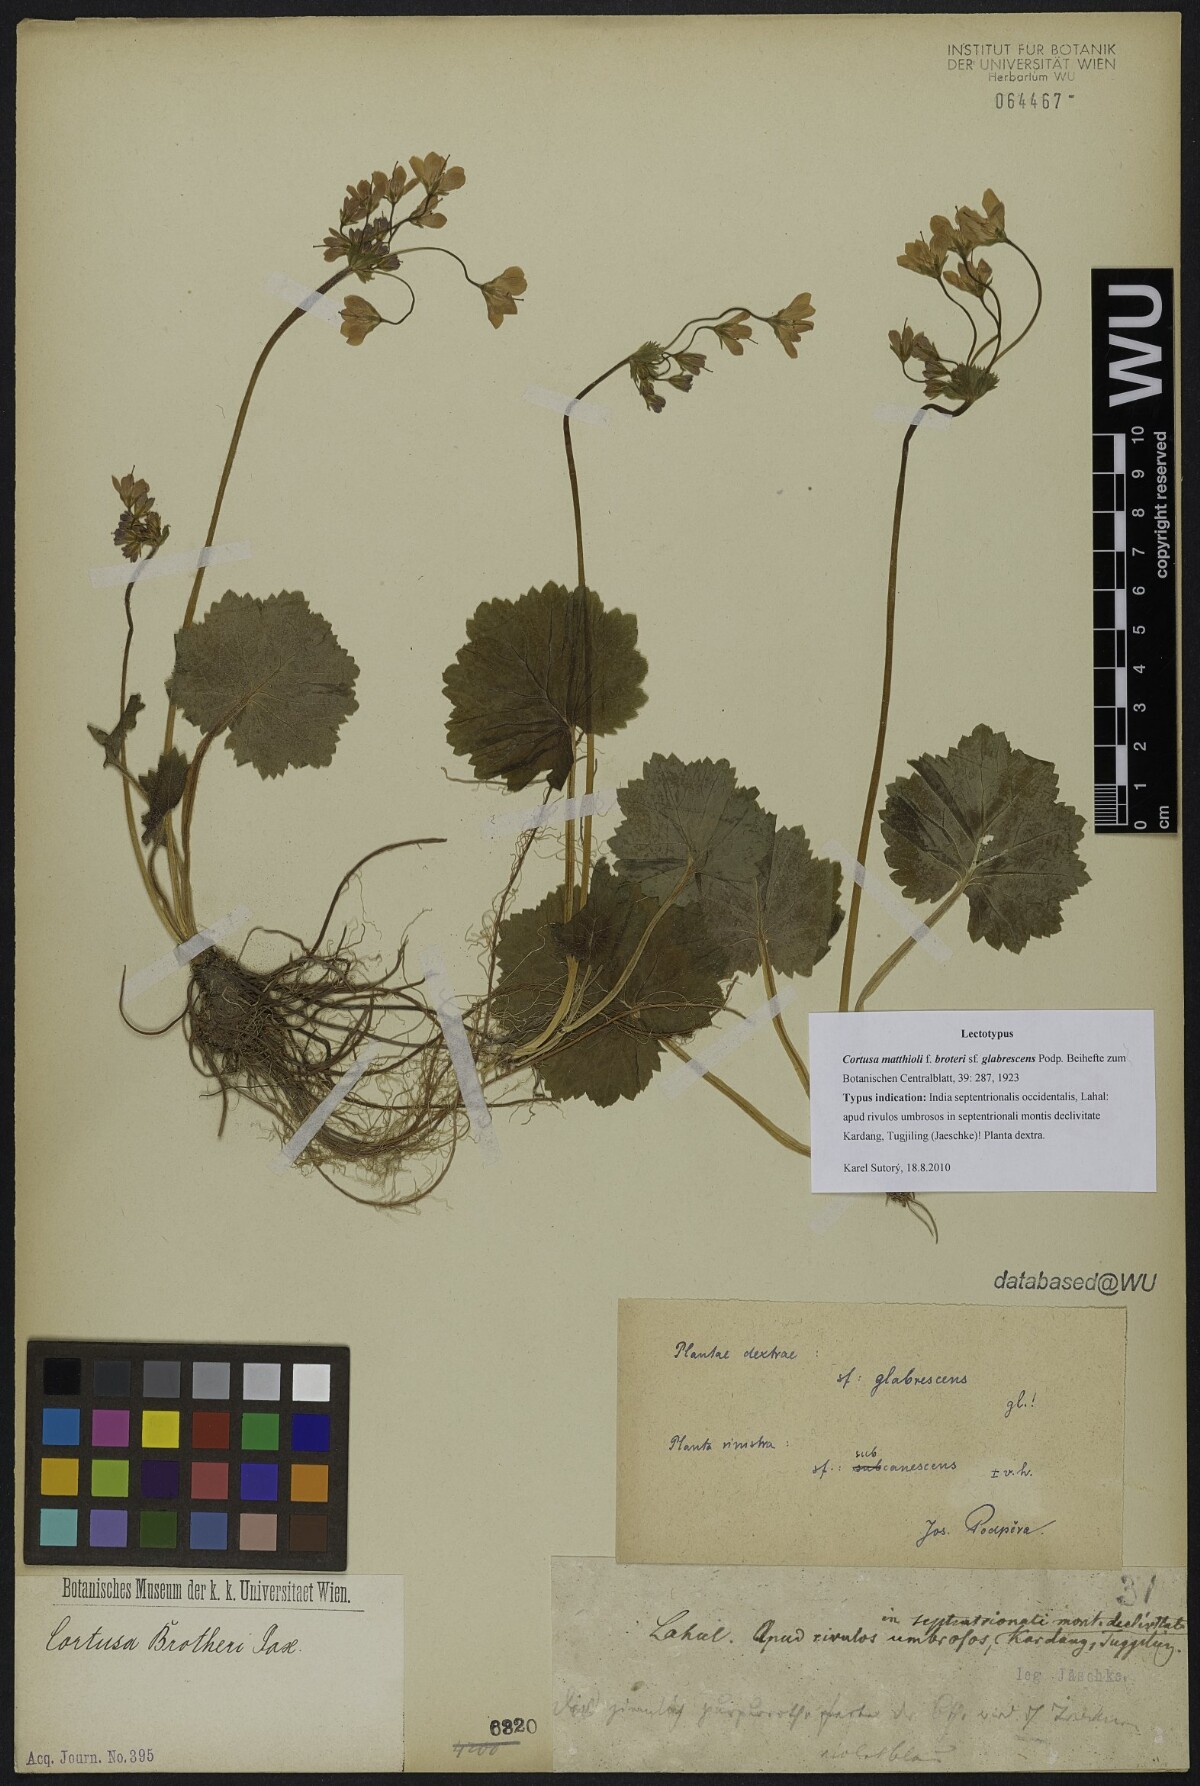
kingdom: Plantae
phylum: Tracheophyta
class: Magnoliopsida
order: Ericales
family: Primulaceae
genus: Primula
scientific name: Primula matthioli
